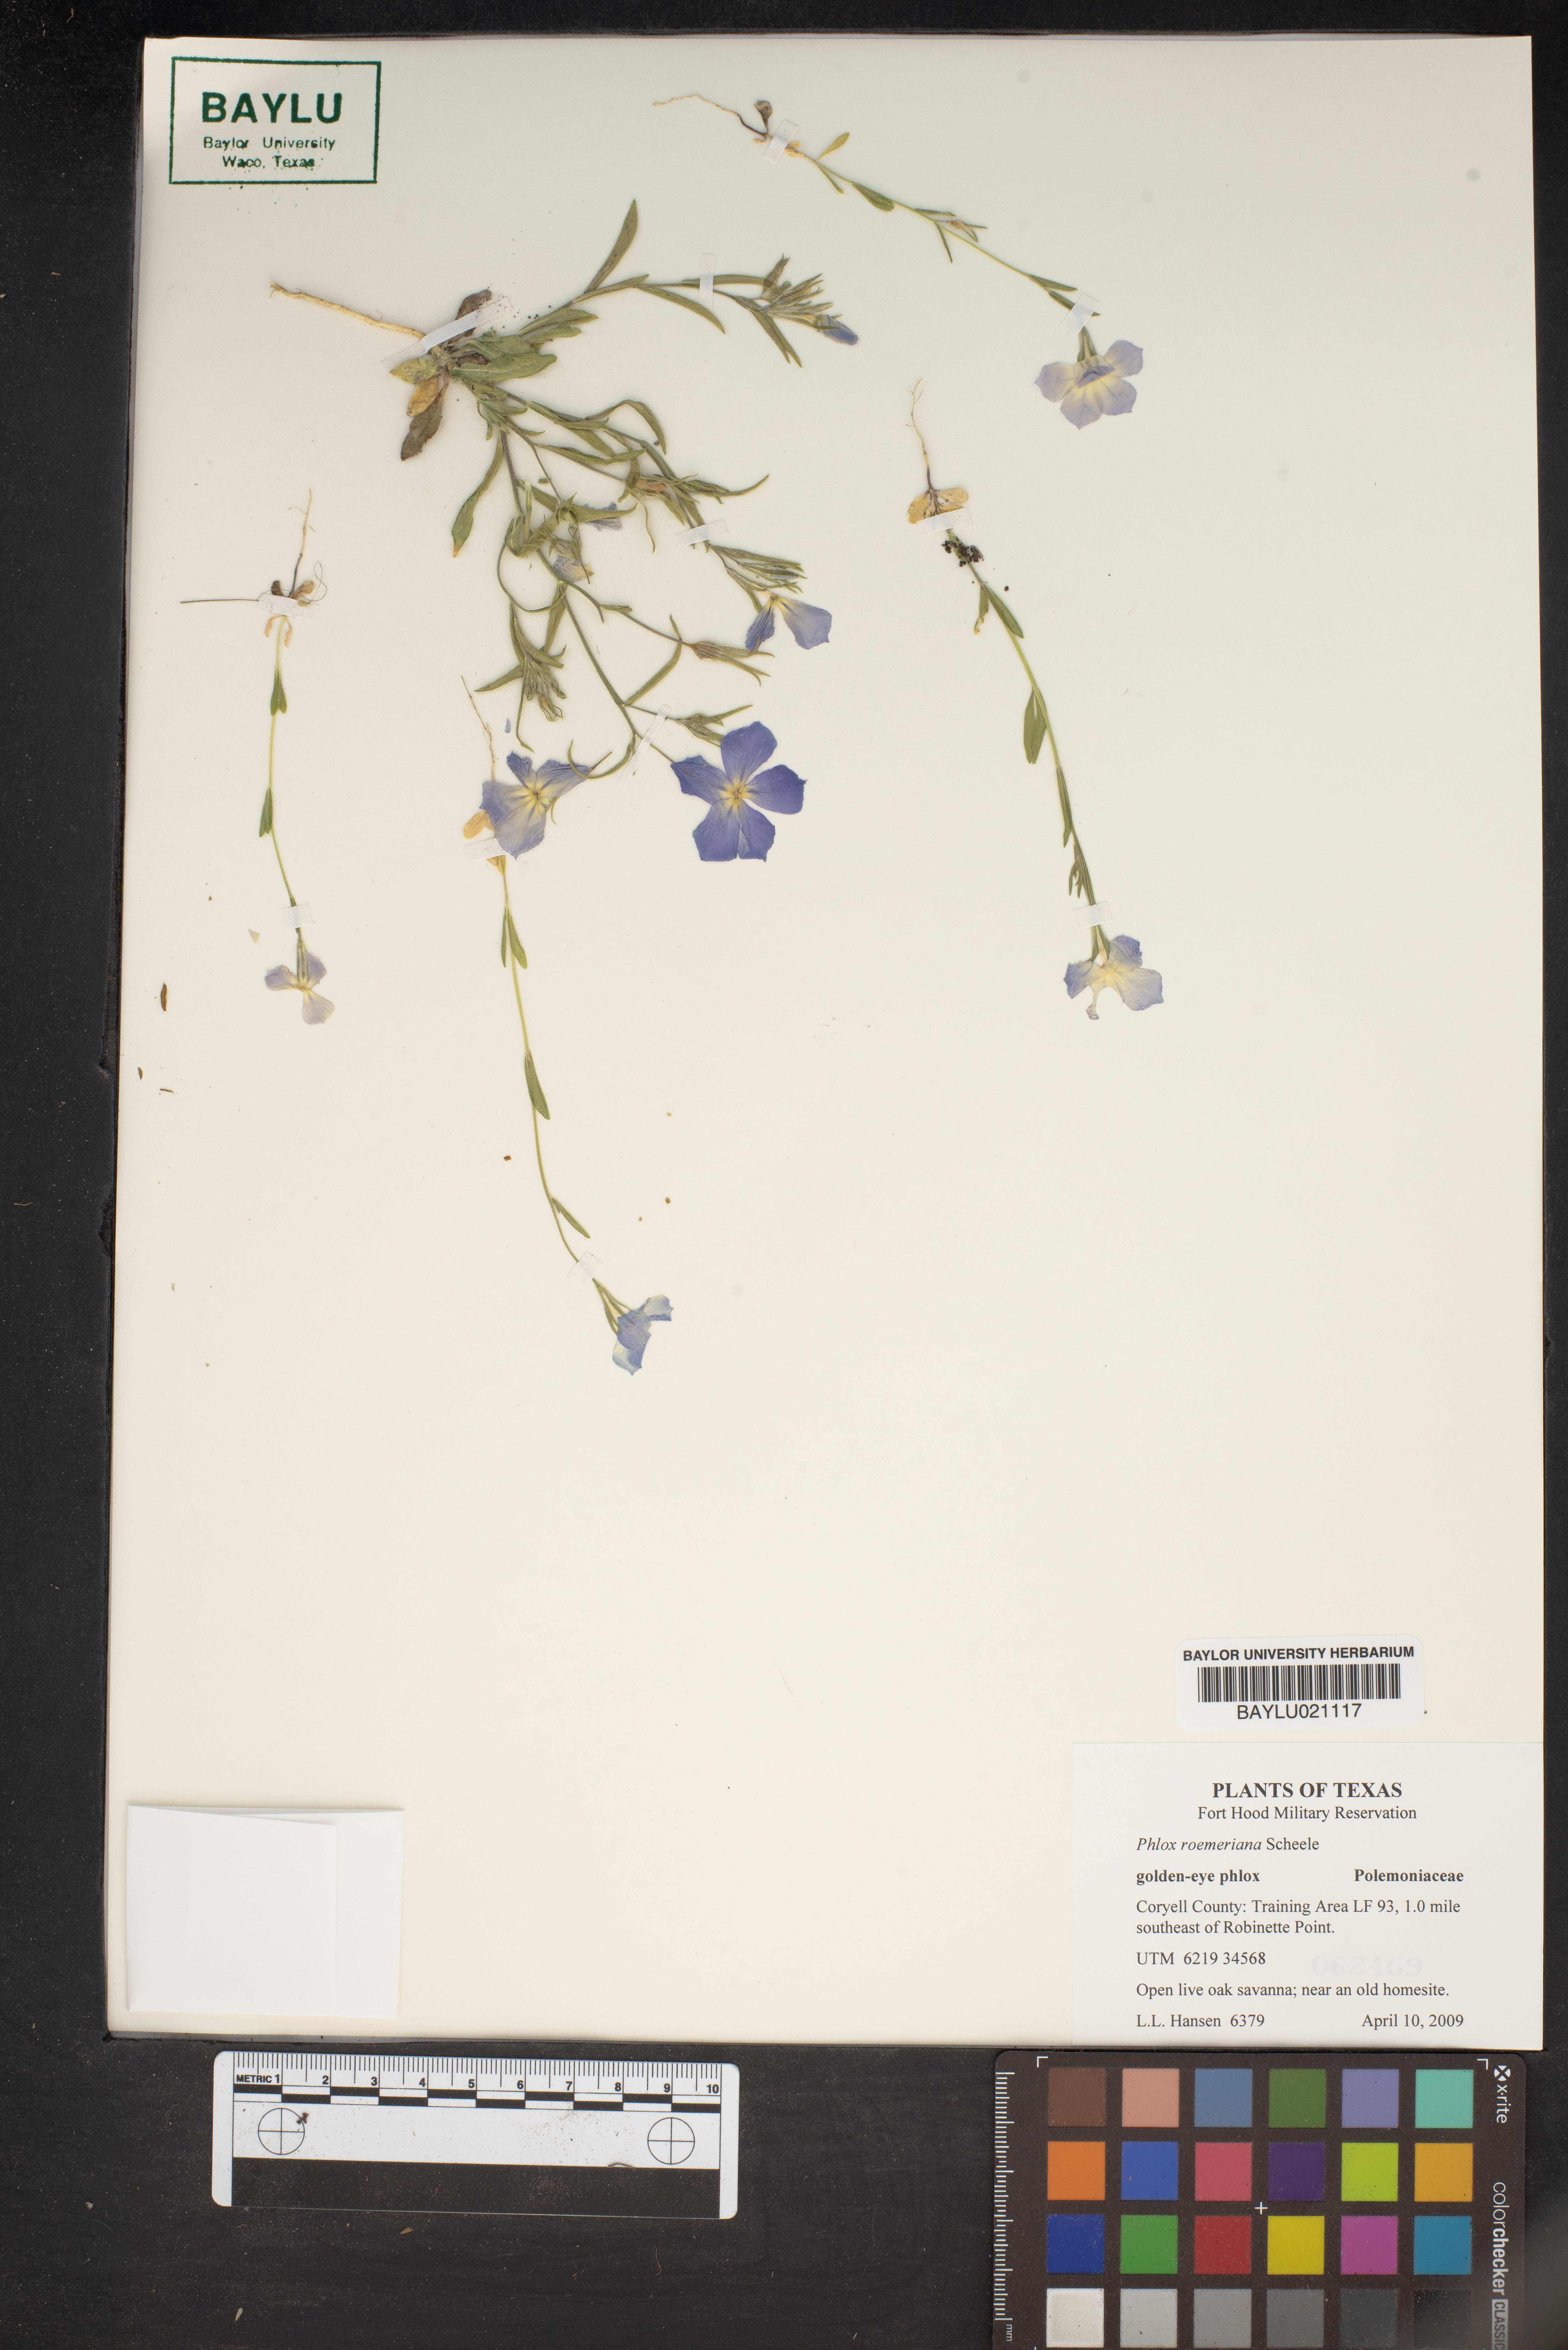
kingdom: Plantae
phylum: Tracheophyta
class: Magnoliopsida
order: Ericales
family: Polemoniaceae
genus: Phlox
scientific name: Phlox roemeriana
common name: Roemer's phlox
